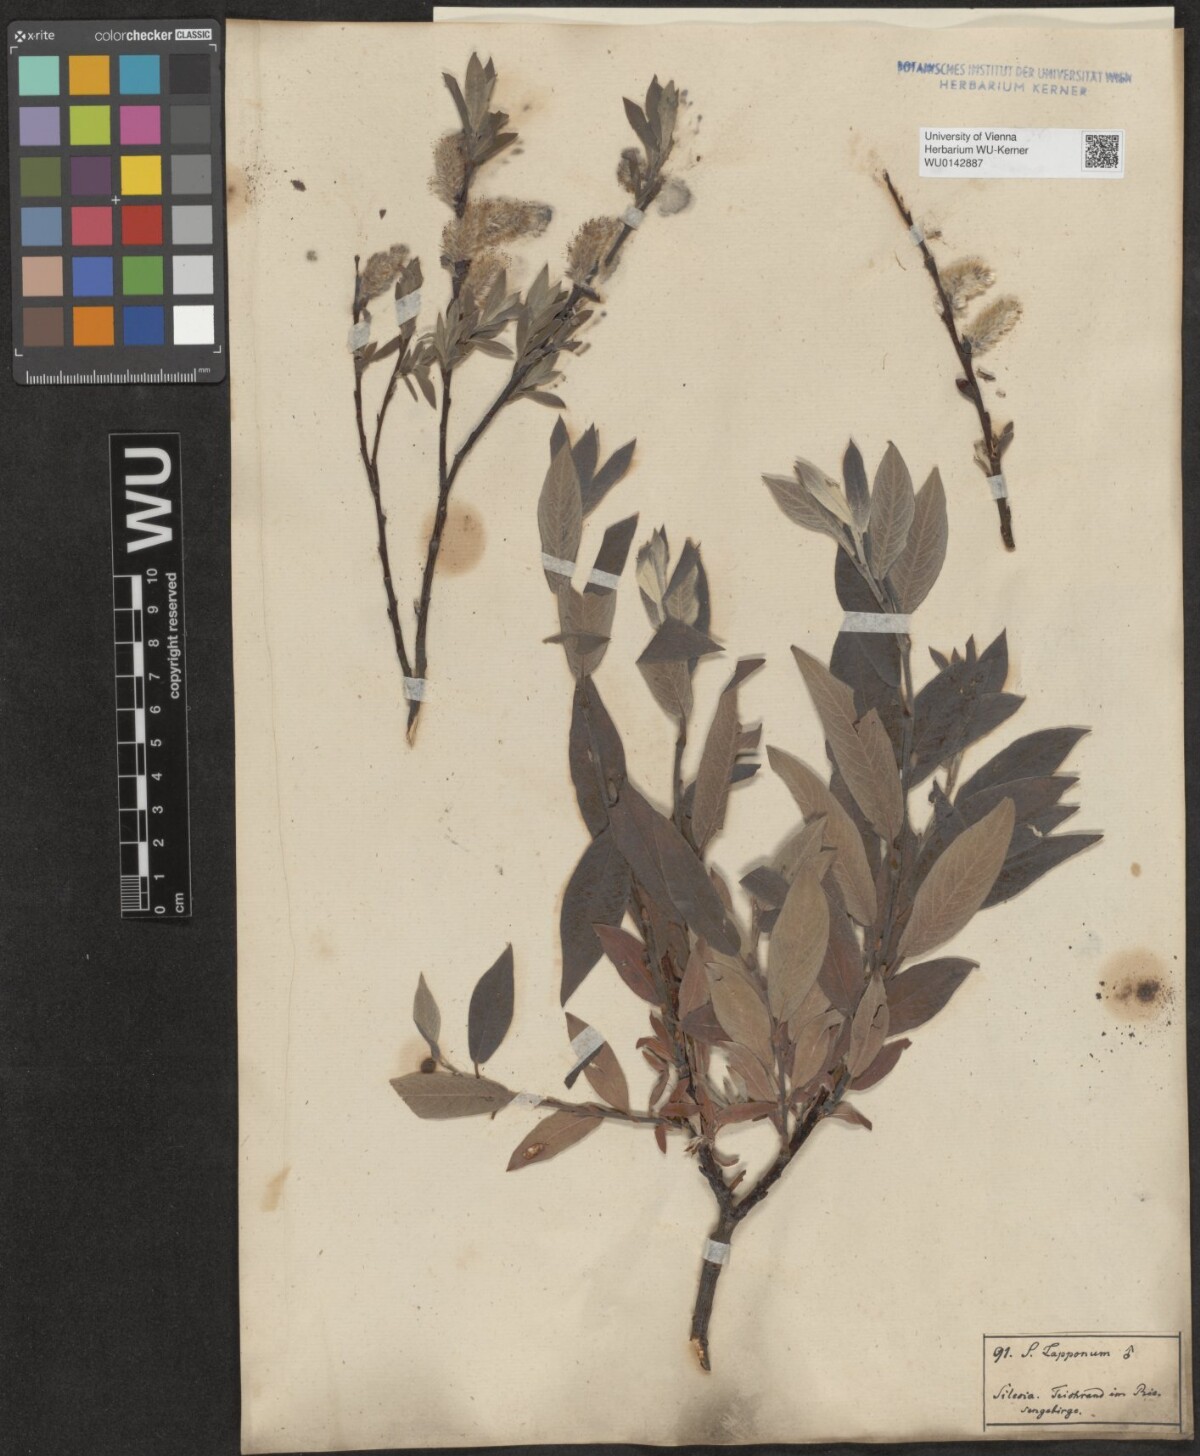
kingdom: Plantae
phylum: Tracheophyta
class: Magnoliopsida
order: Malpighiales
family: Salicaceae
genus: Salix
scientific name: Salix lapponum
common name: Downy willow
